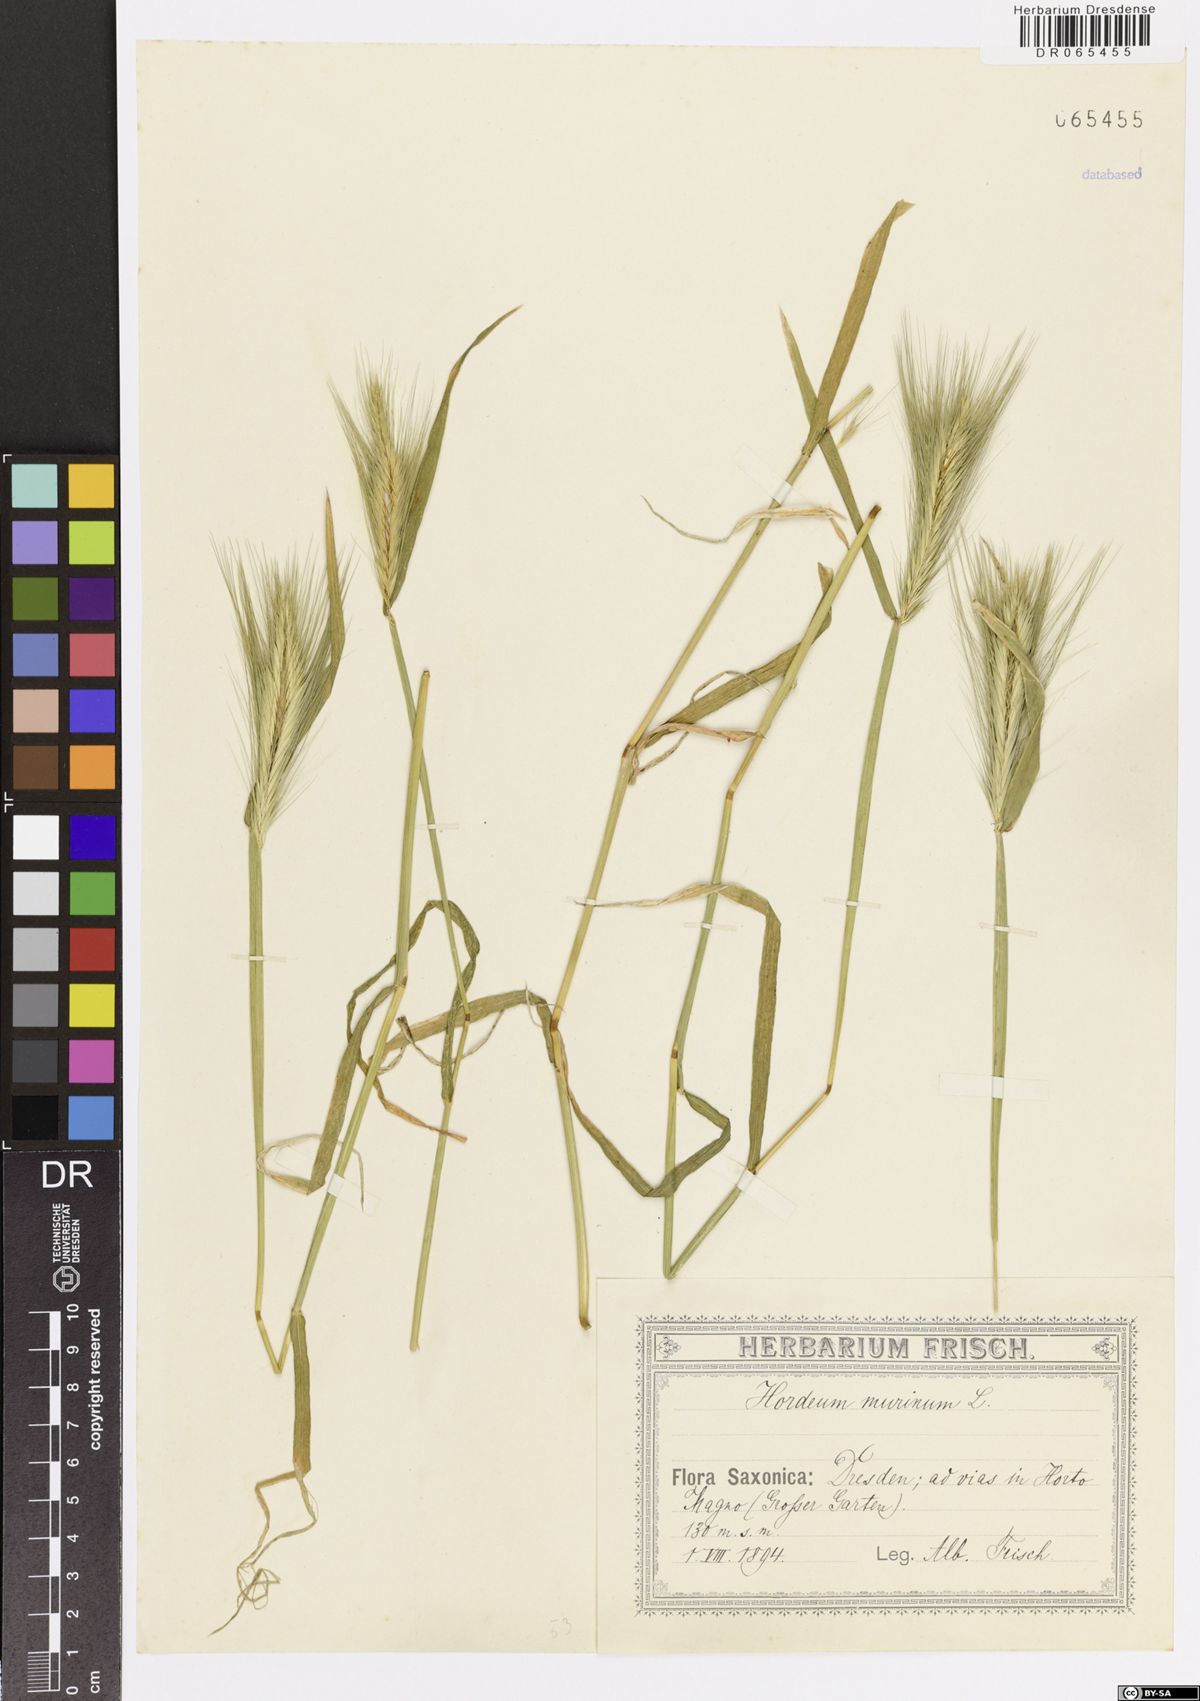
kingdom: Plantae
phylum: Tracheophyta
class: Liliopsida
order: Poales
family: Poaceae
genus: Hordeum
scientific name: Hordeum murinum
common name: Wall barley
